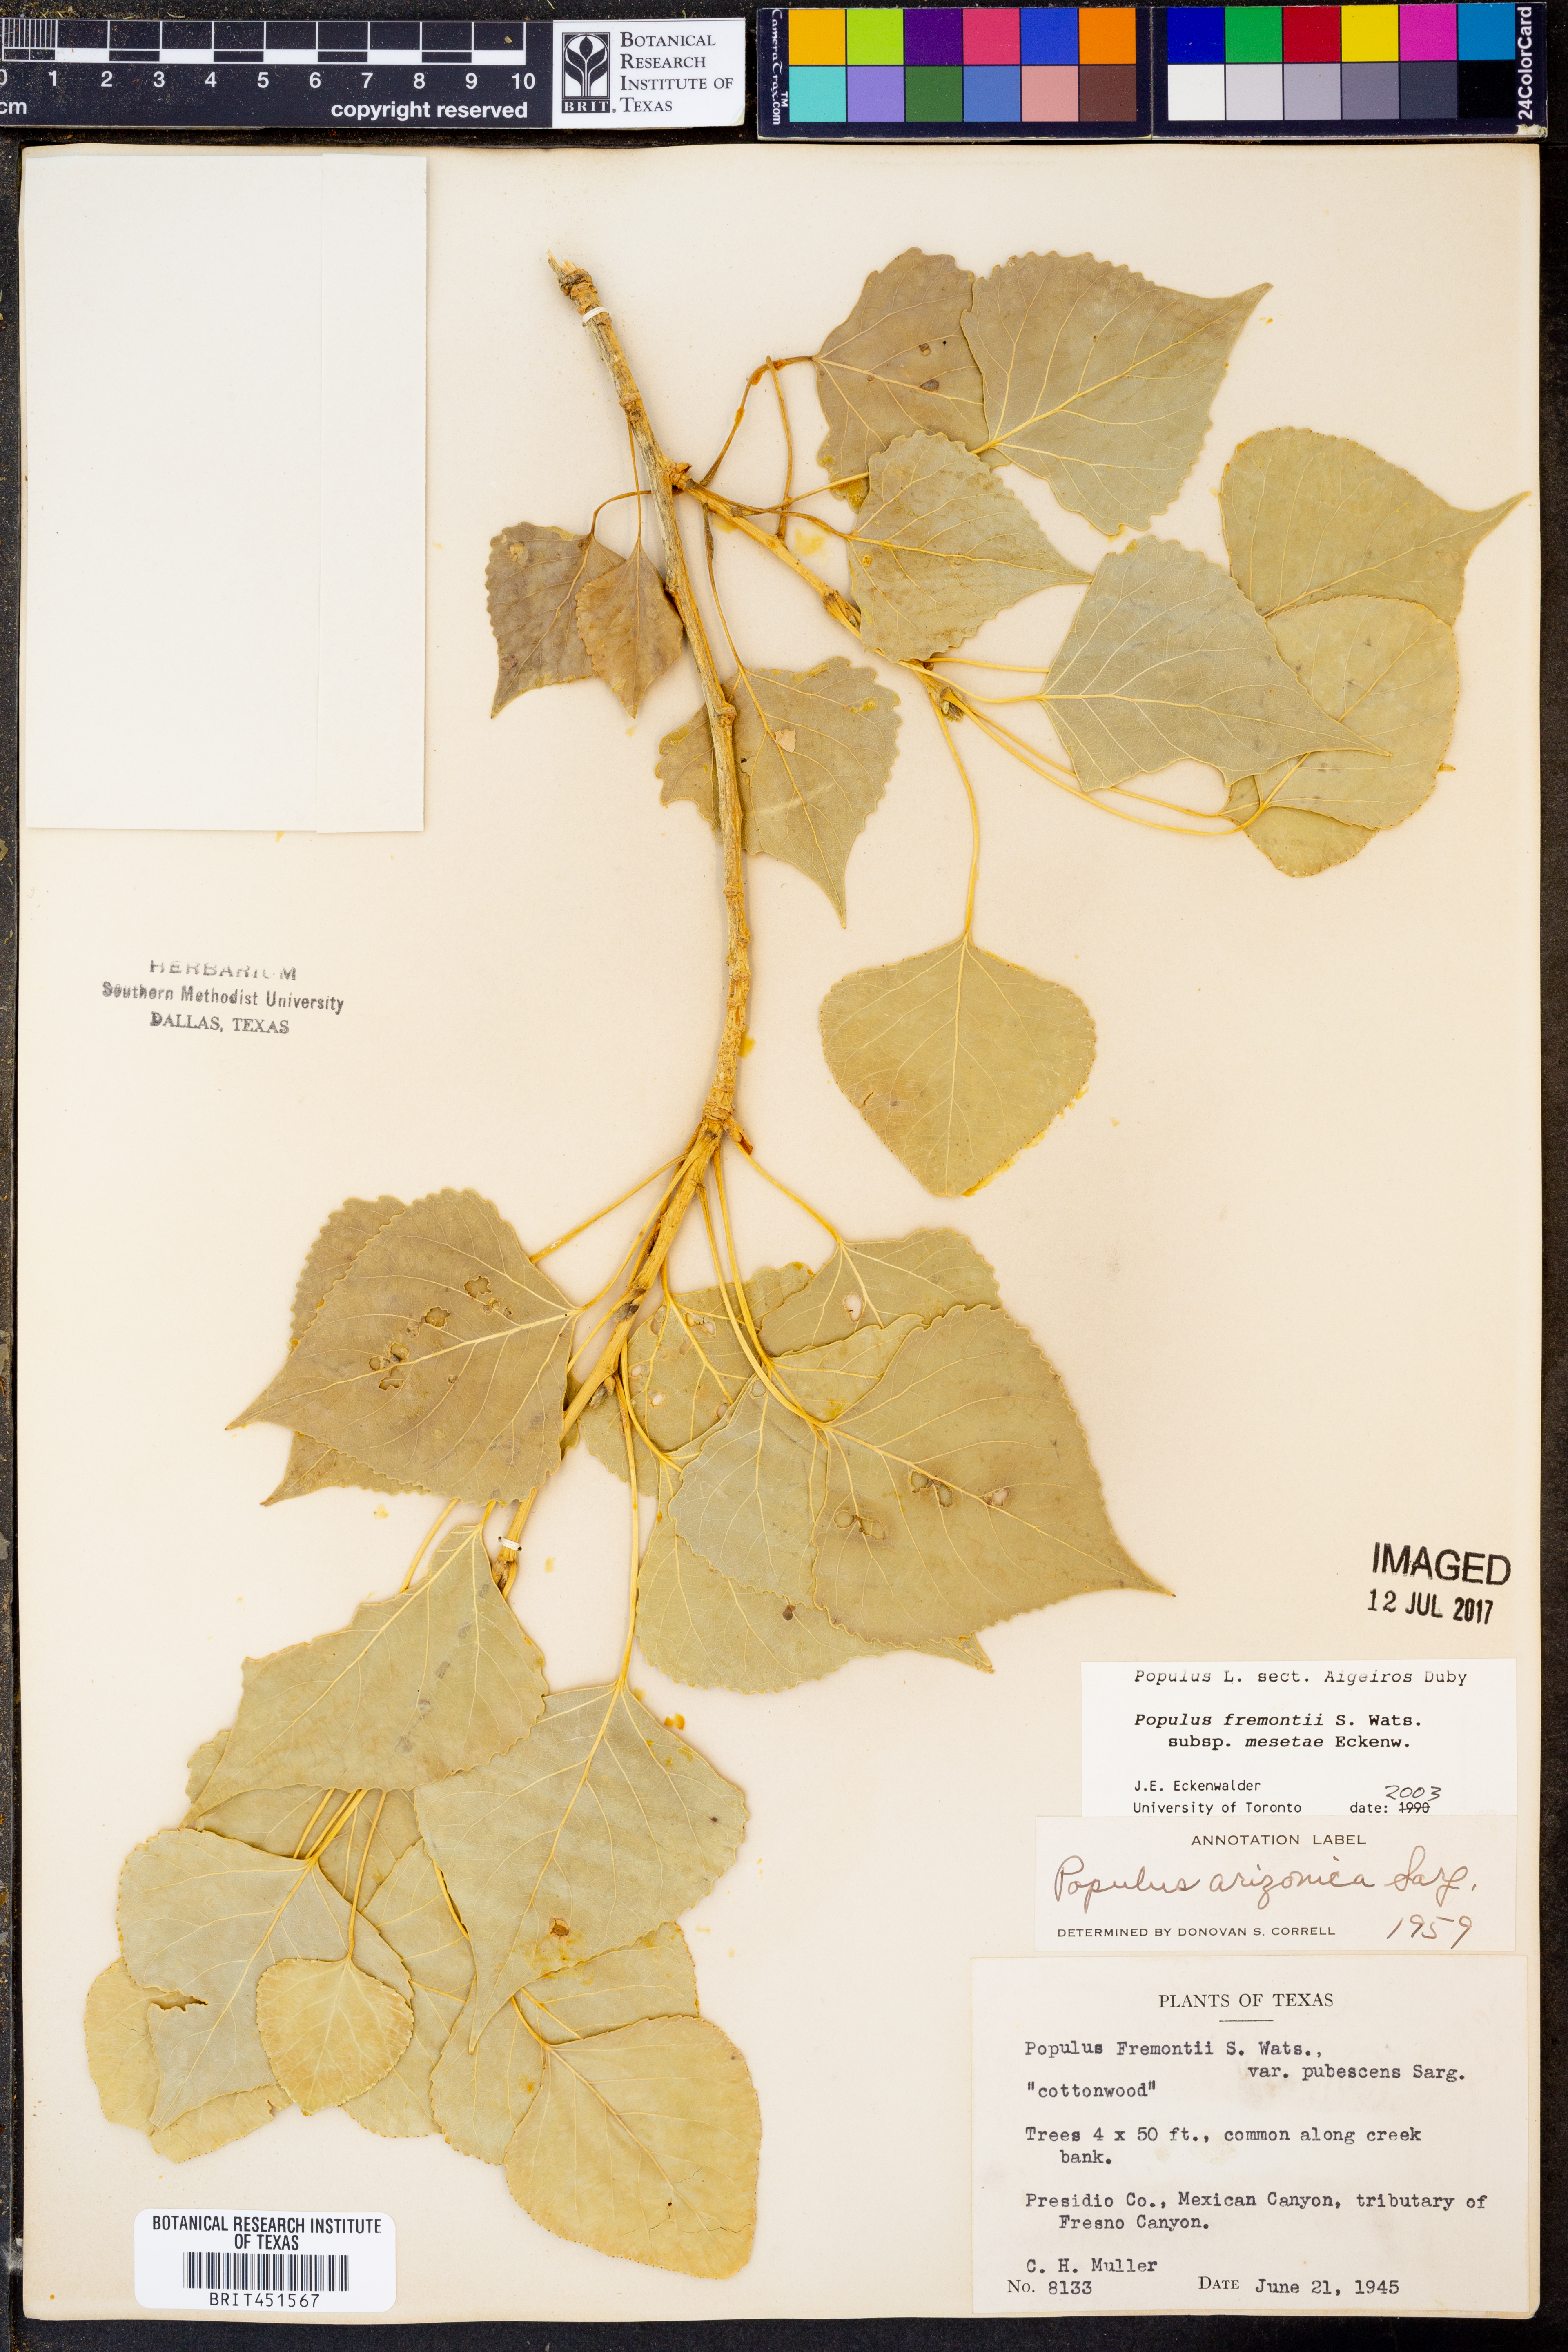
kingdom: Plantae
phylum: Tracheophyta
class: Magnoliopsida
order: Malpighiales
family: Salicaceae
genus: Populus
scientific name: Populus fremontii
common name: Fremont's cottonwood
